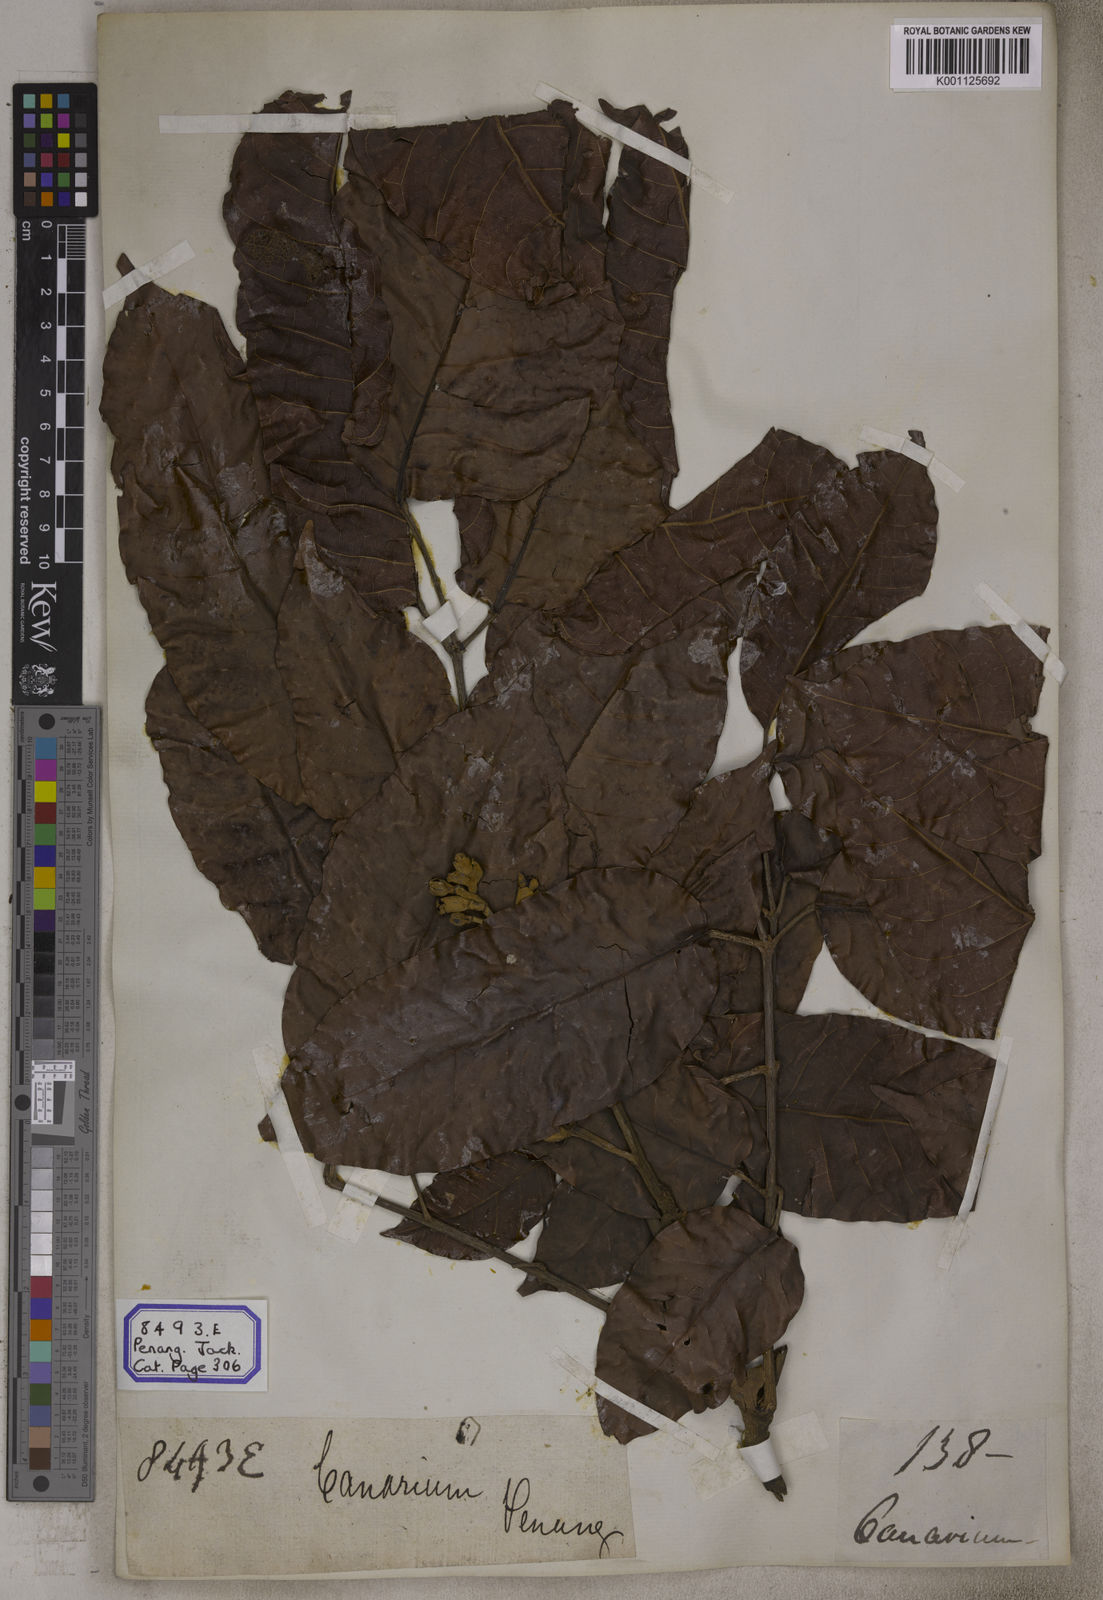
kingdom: Plantae
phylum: Tracheophyta
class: Magnoliopsida
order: Sapindales
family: Burseraceae
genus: Canarium
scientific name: Canarium indicum
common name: Canarium-nut
